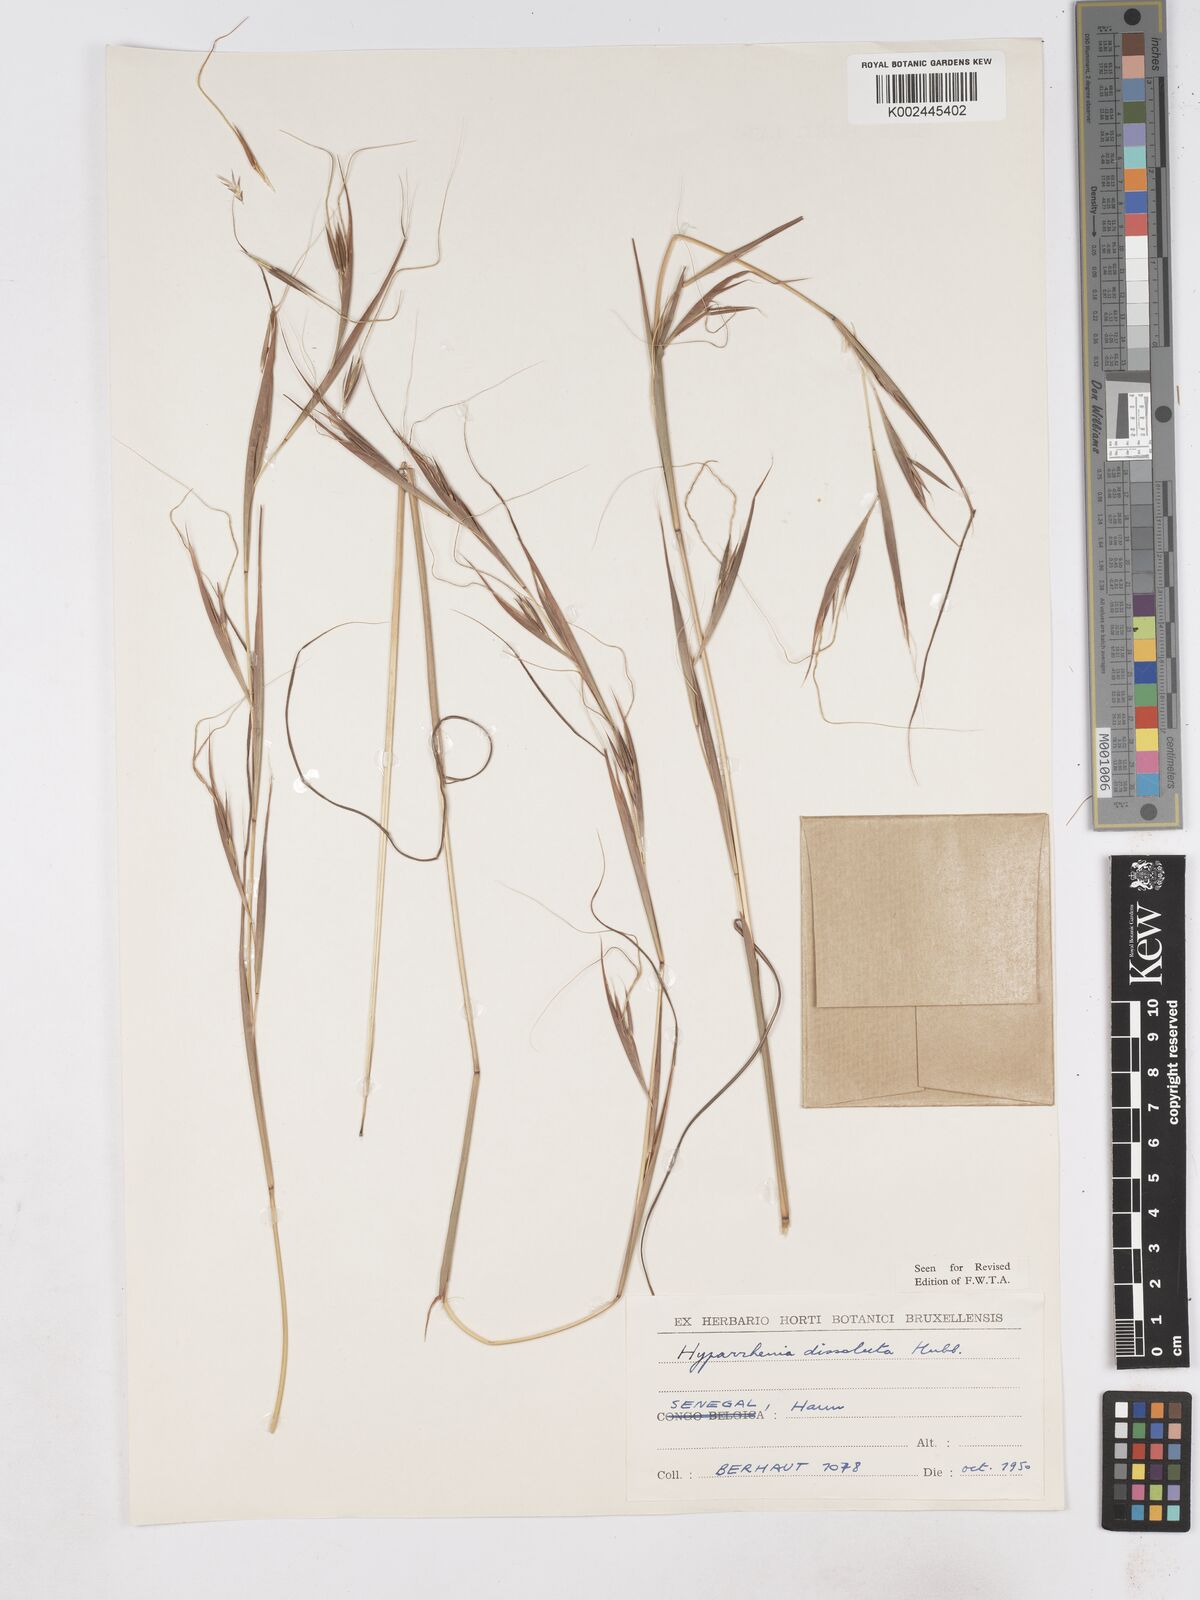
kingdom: Plantae
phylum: Tracheophyta
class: Liliopsida
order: Poales
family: Poaceae
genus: Hyperthelia
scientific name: Hyperthelia dissoluta
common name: Yellow thatching grass
